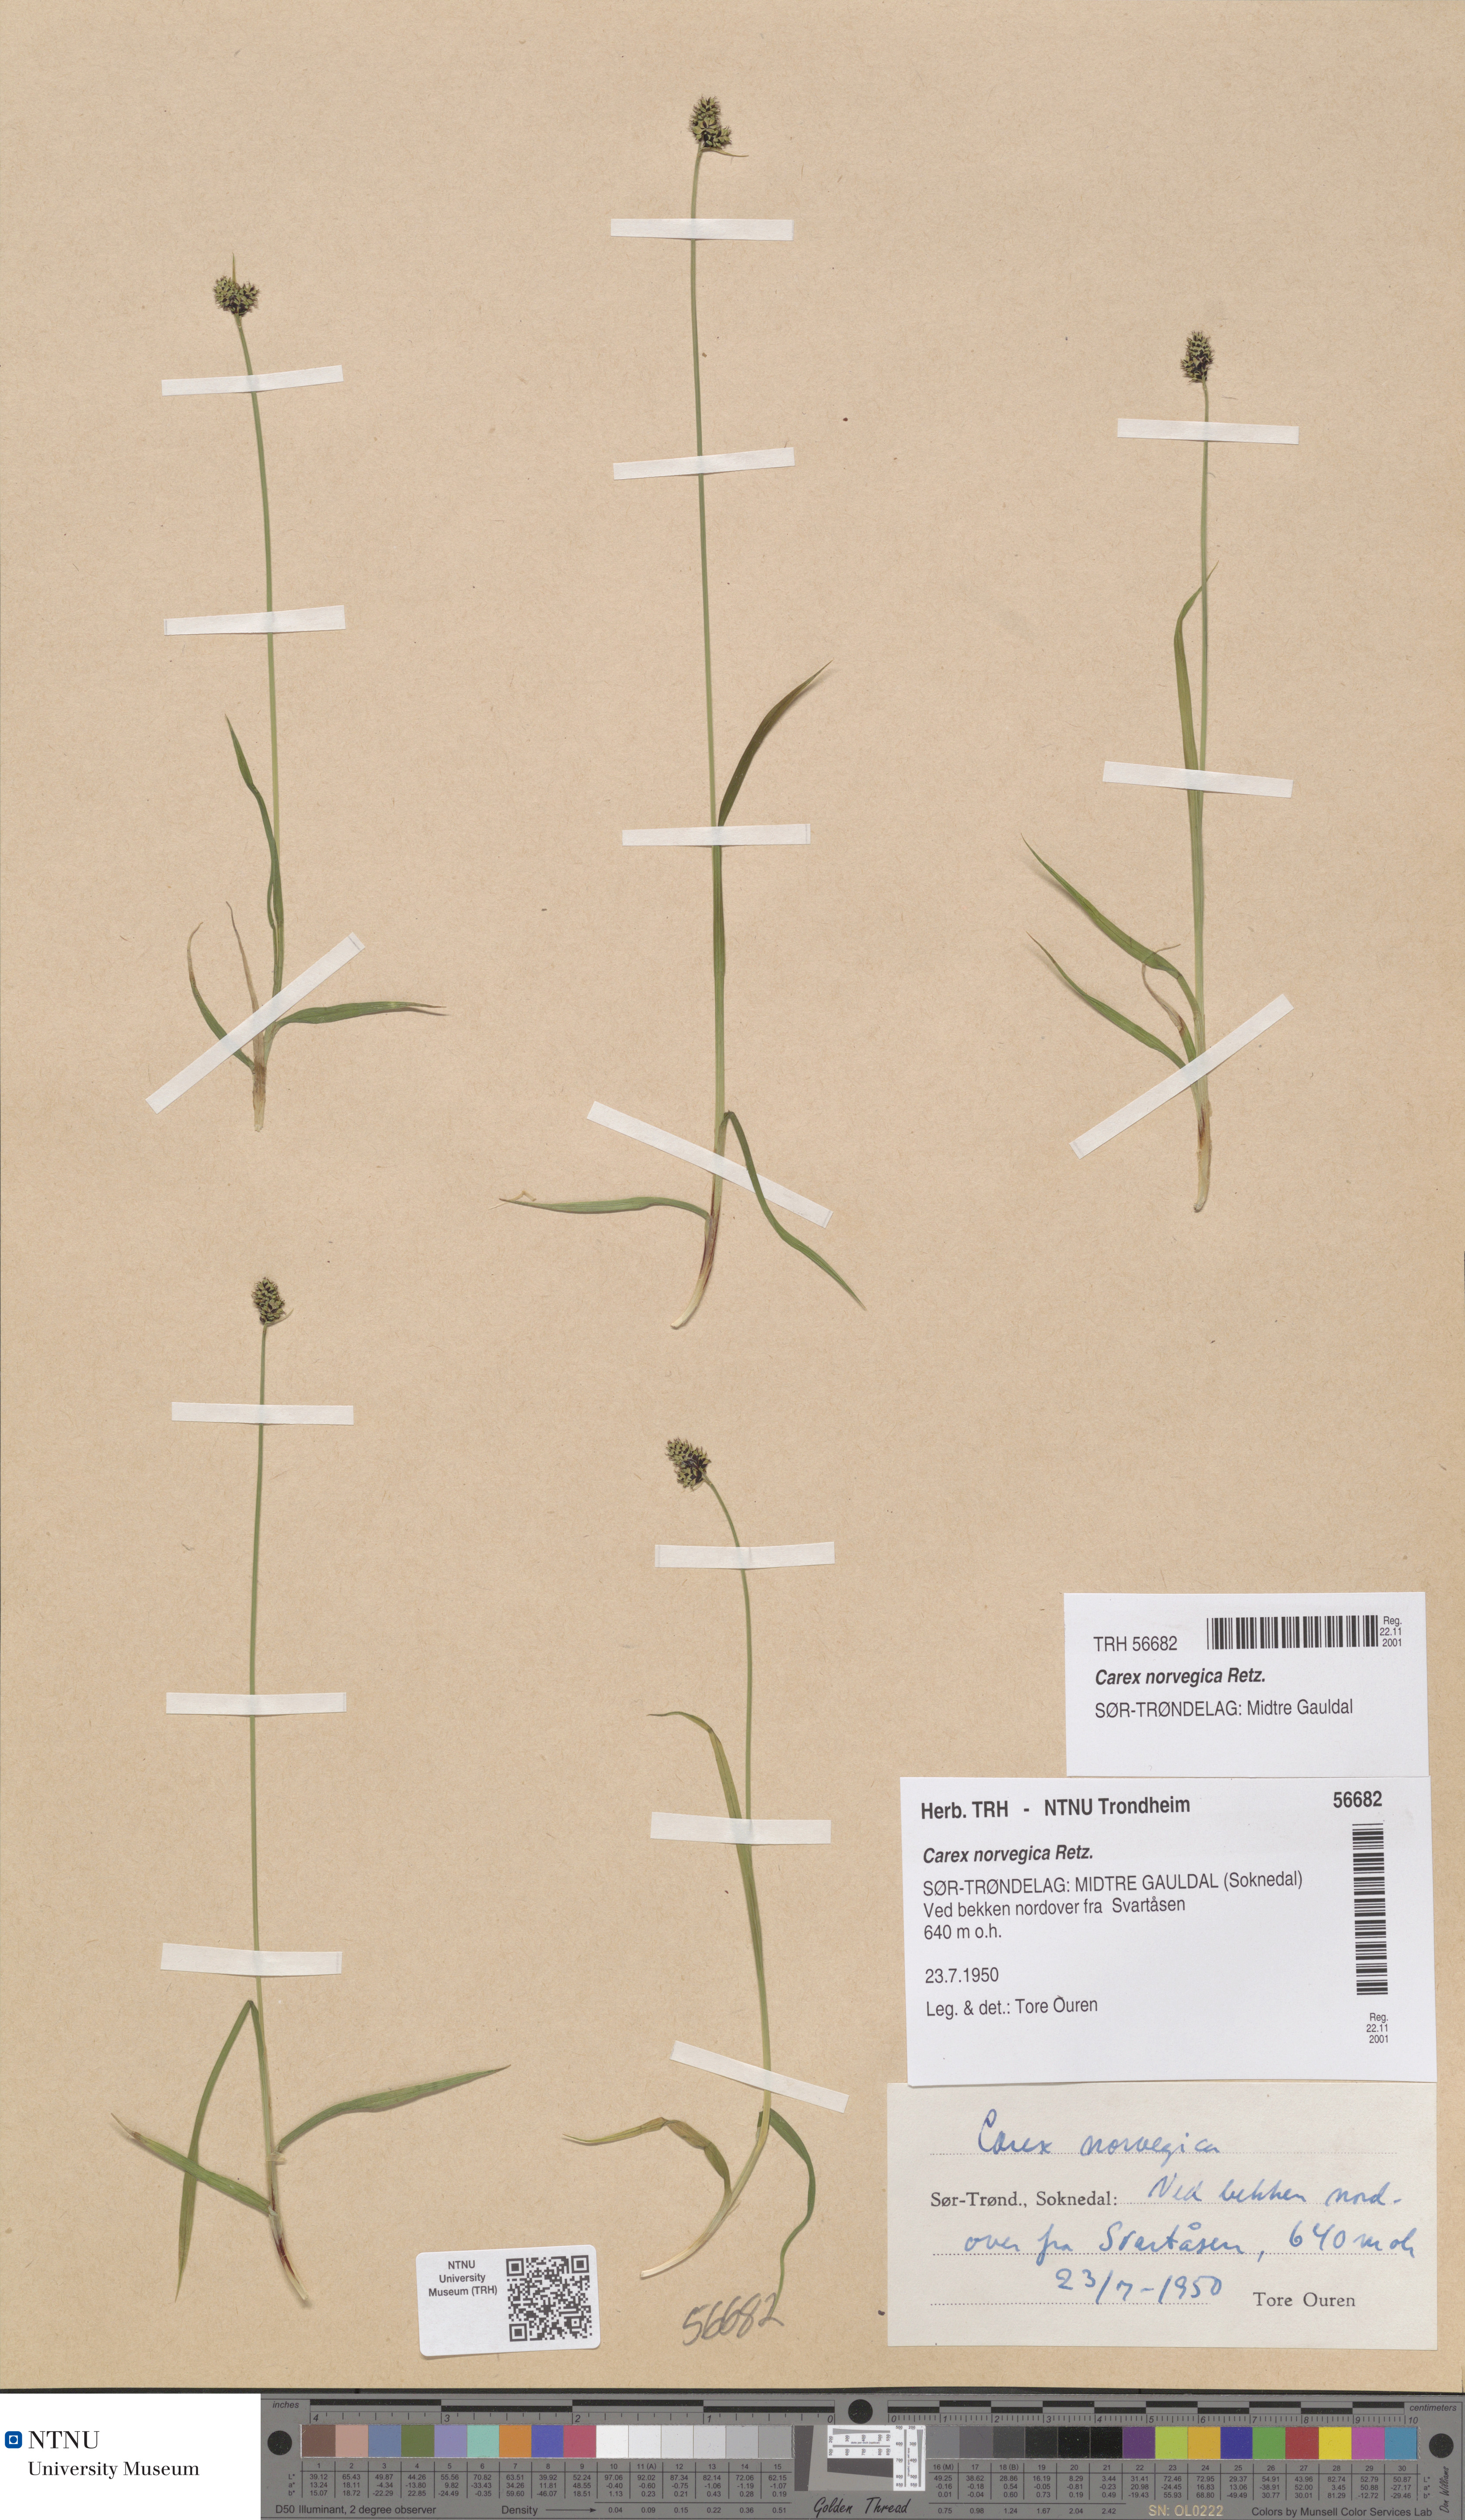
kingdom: Plantae
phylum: Tracheophyta
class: Liliopsida
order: Poales
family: Cyperaceae
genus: Carex
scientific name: Carex norvegica
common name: Close-headed alpine-sedge
